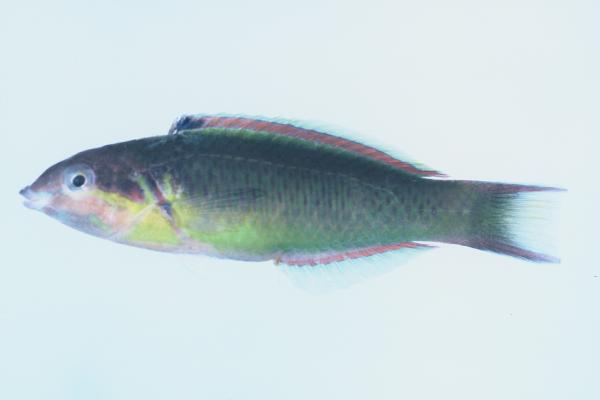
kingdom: Animalia
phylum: Chordata
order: Perciformes
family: Labridae
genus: Thalassoma
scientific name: Thalassoma genivittatum
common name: Red-cheek wrasse
